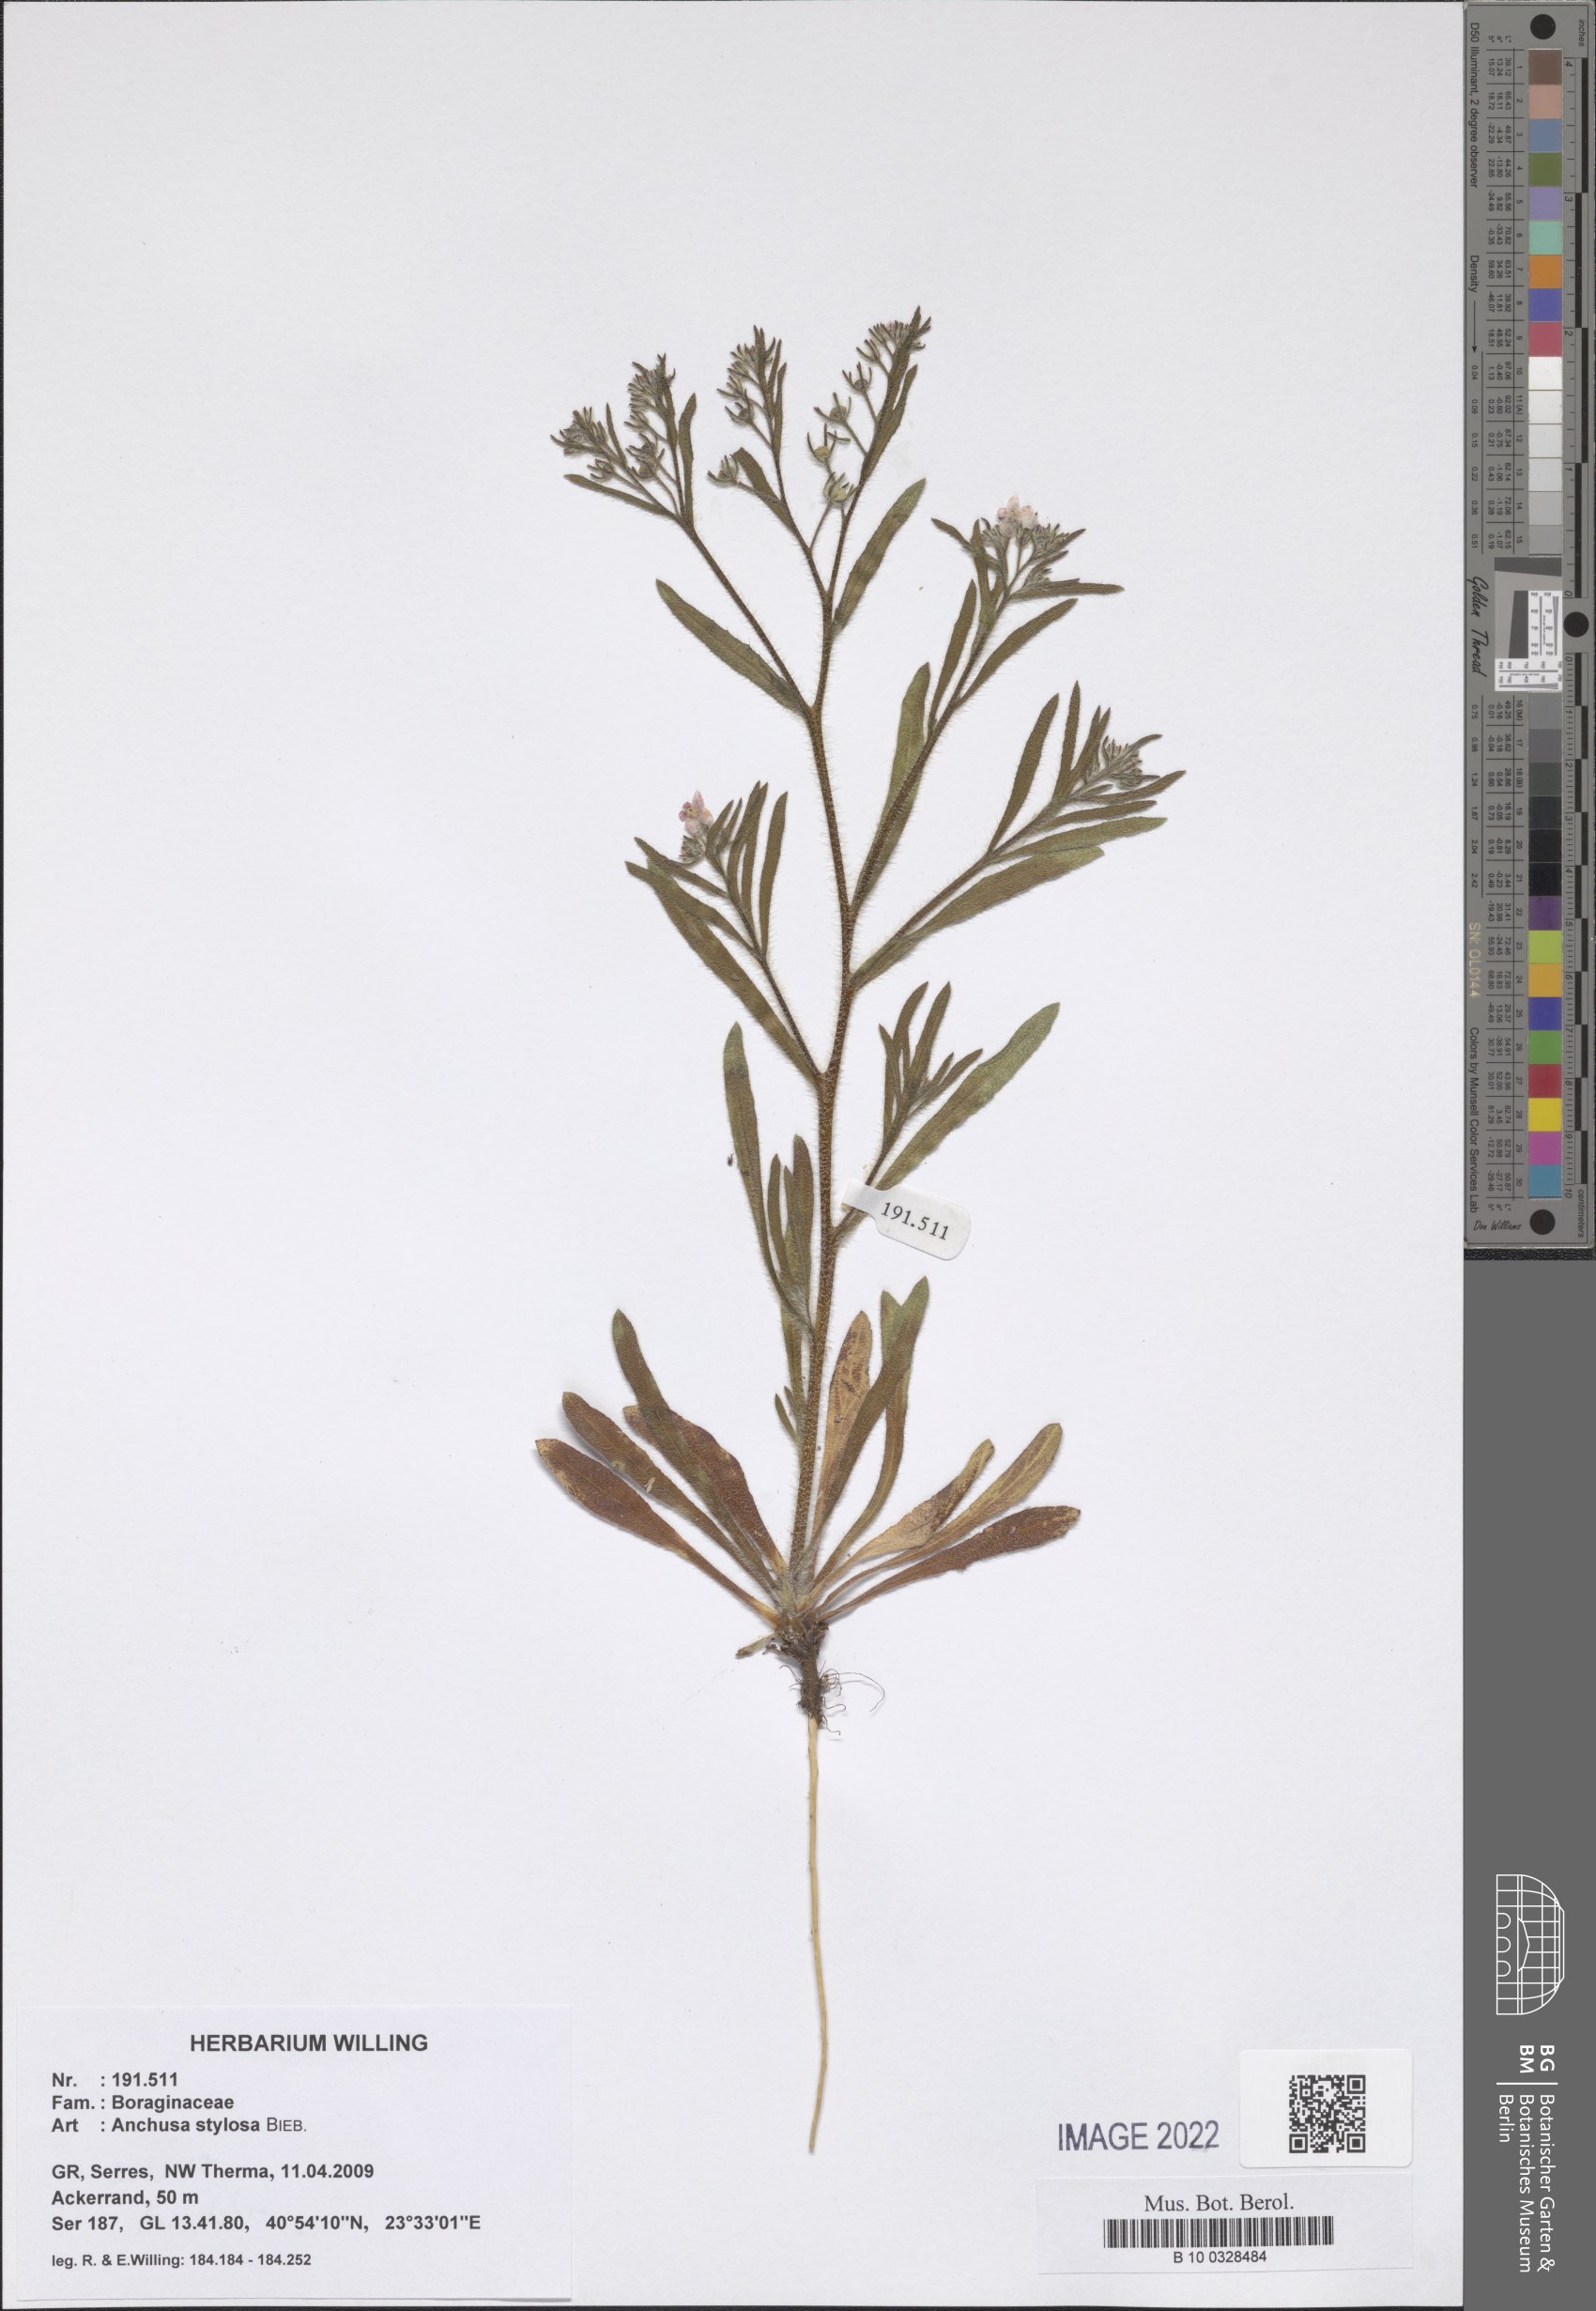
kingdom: Plantae
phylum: Tracheophyta
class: Magnoliopsida
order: Boraginales
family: Boraginaceae
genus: Anchusa
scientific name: Anchusa stylosa
